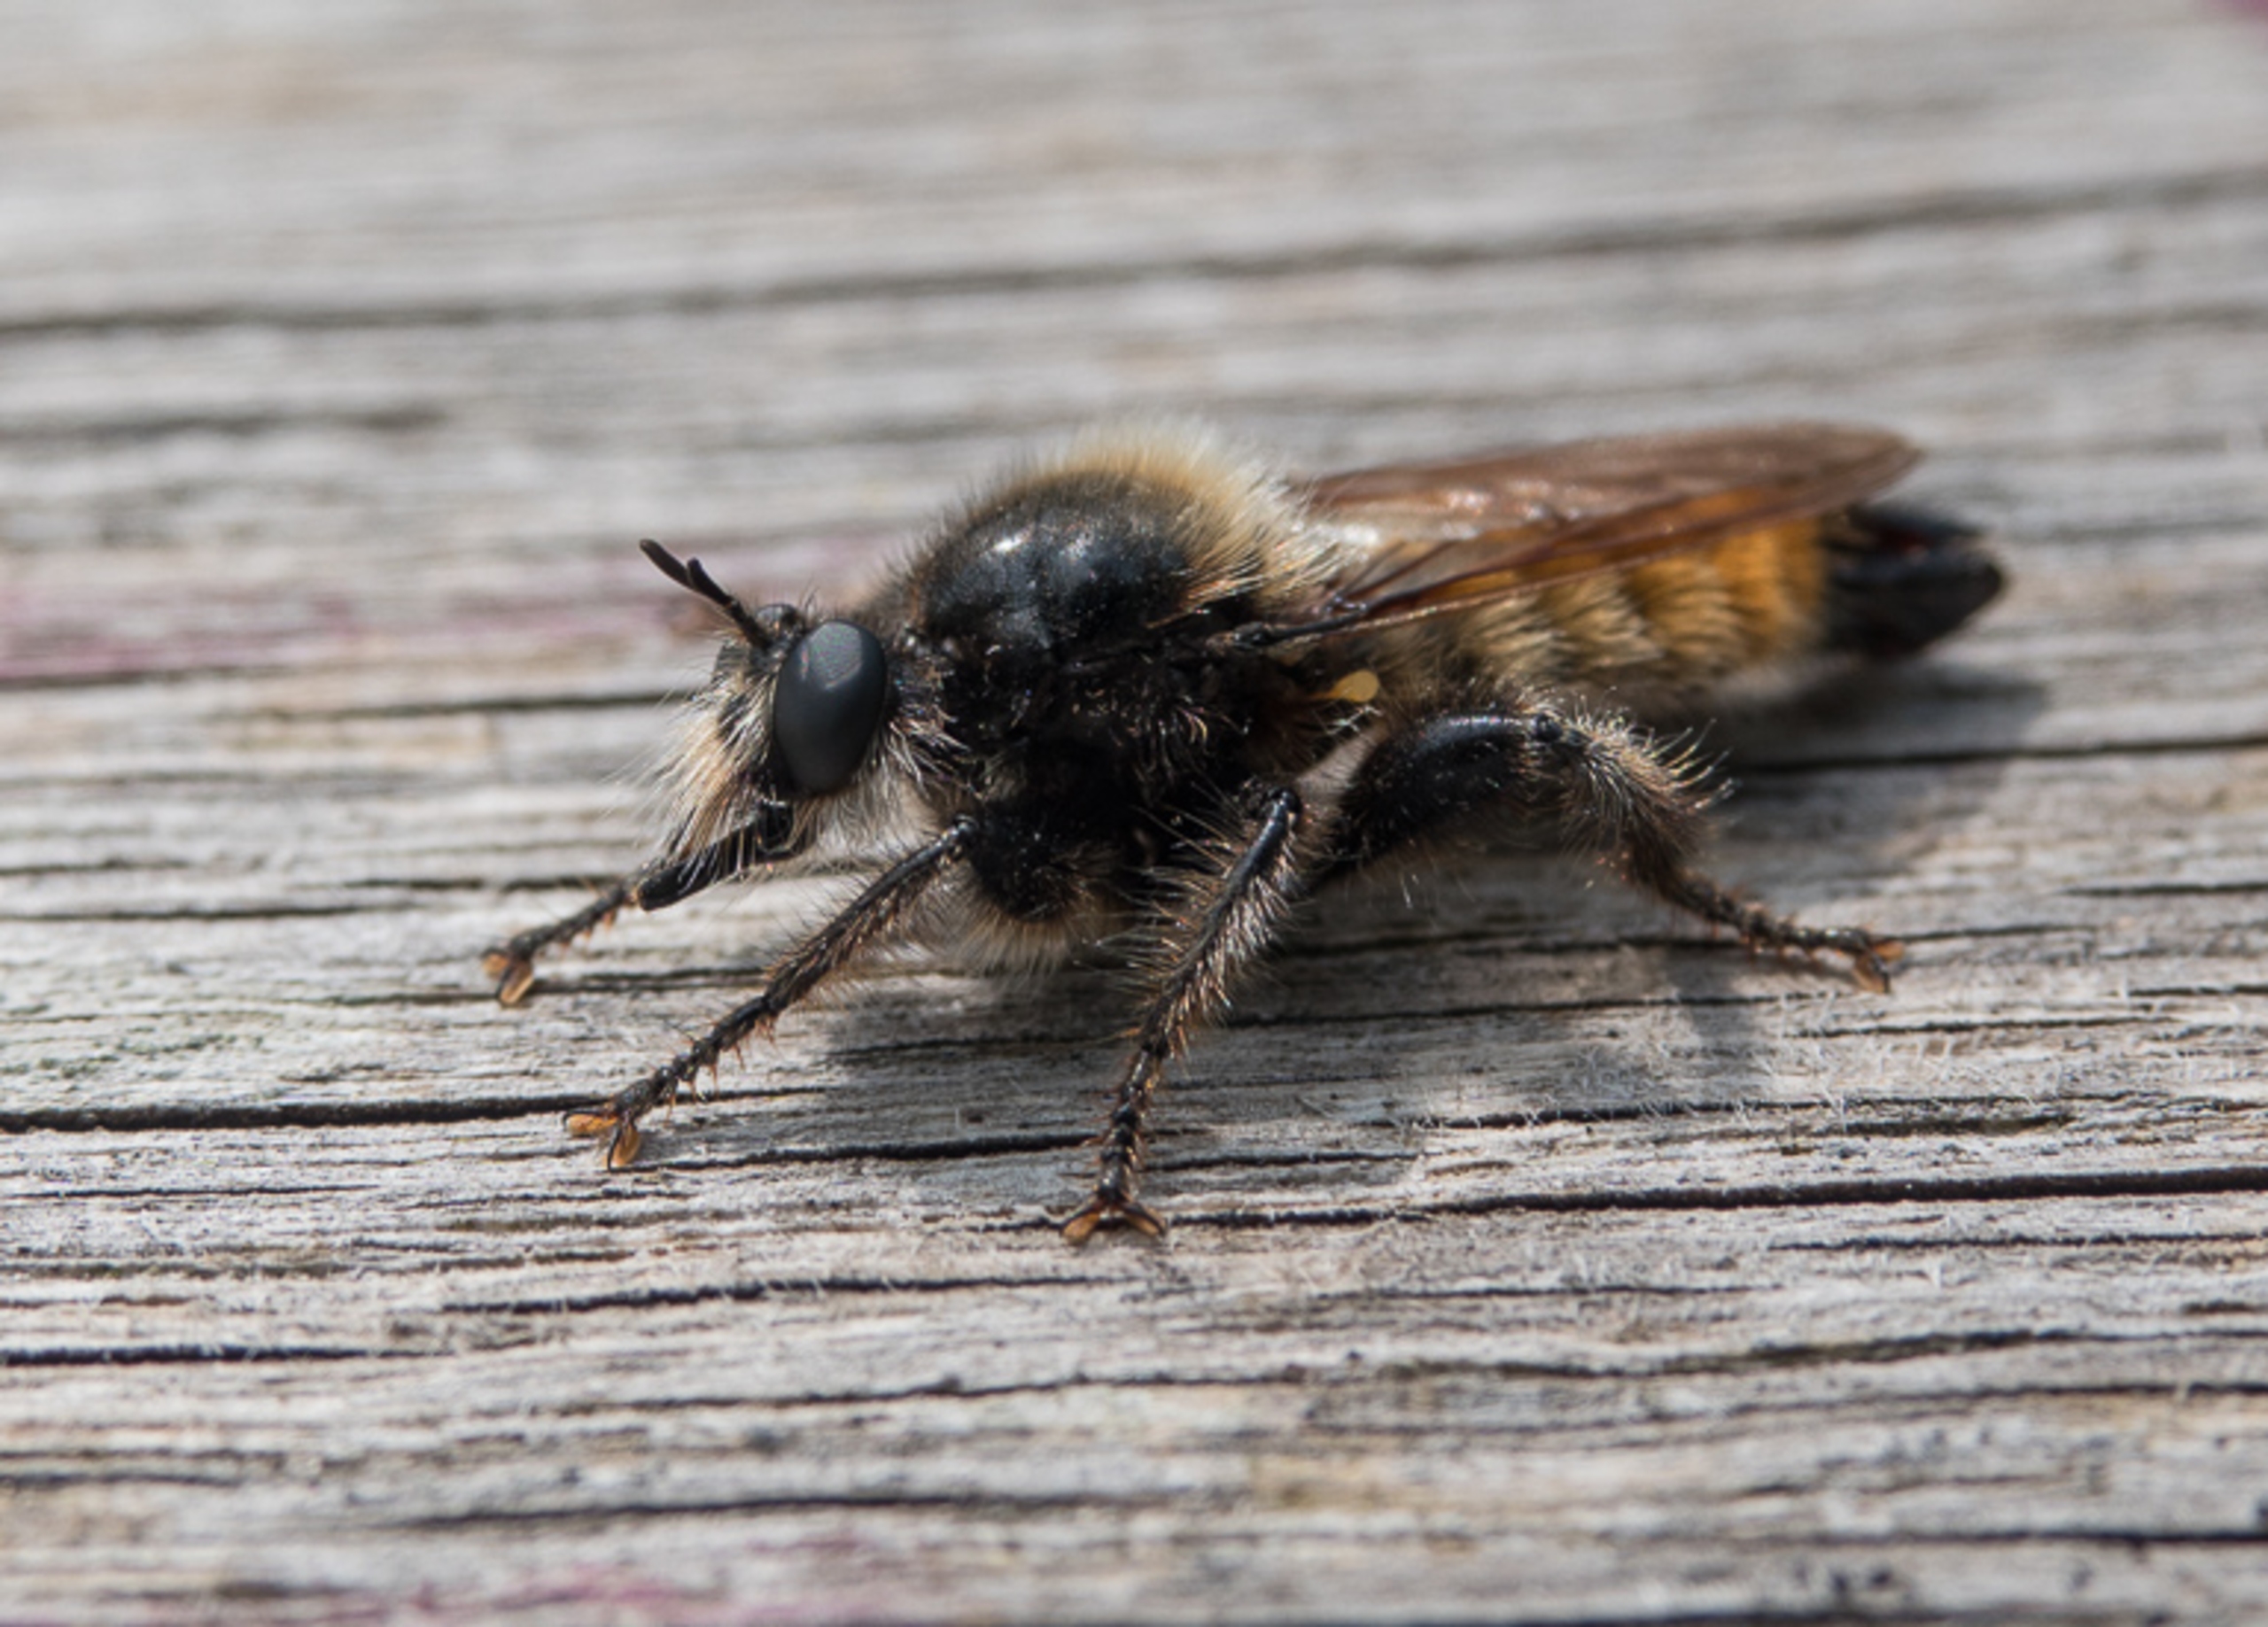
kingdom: Animalia
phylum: Arthropoda
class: Insecta
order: Diptera
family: Asilidae
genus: Laphria
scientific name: Laphria flava
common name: Gul vedrovflue
